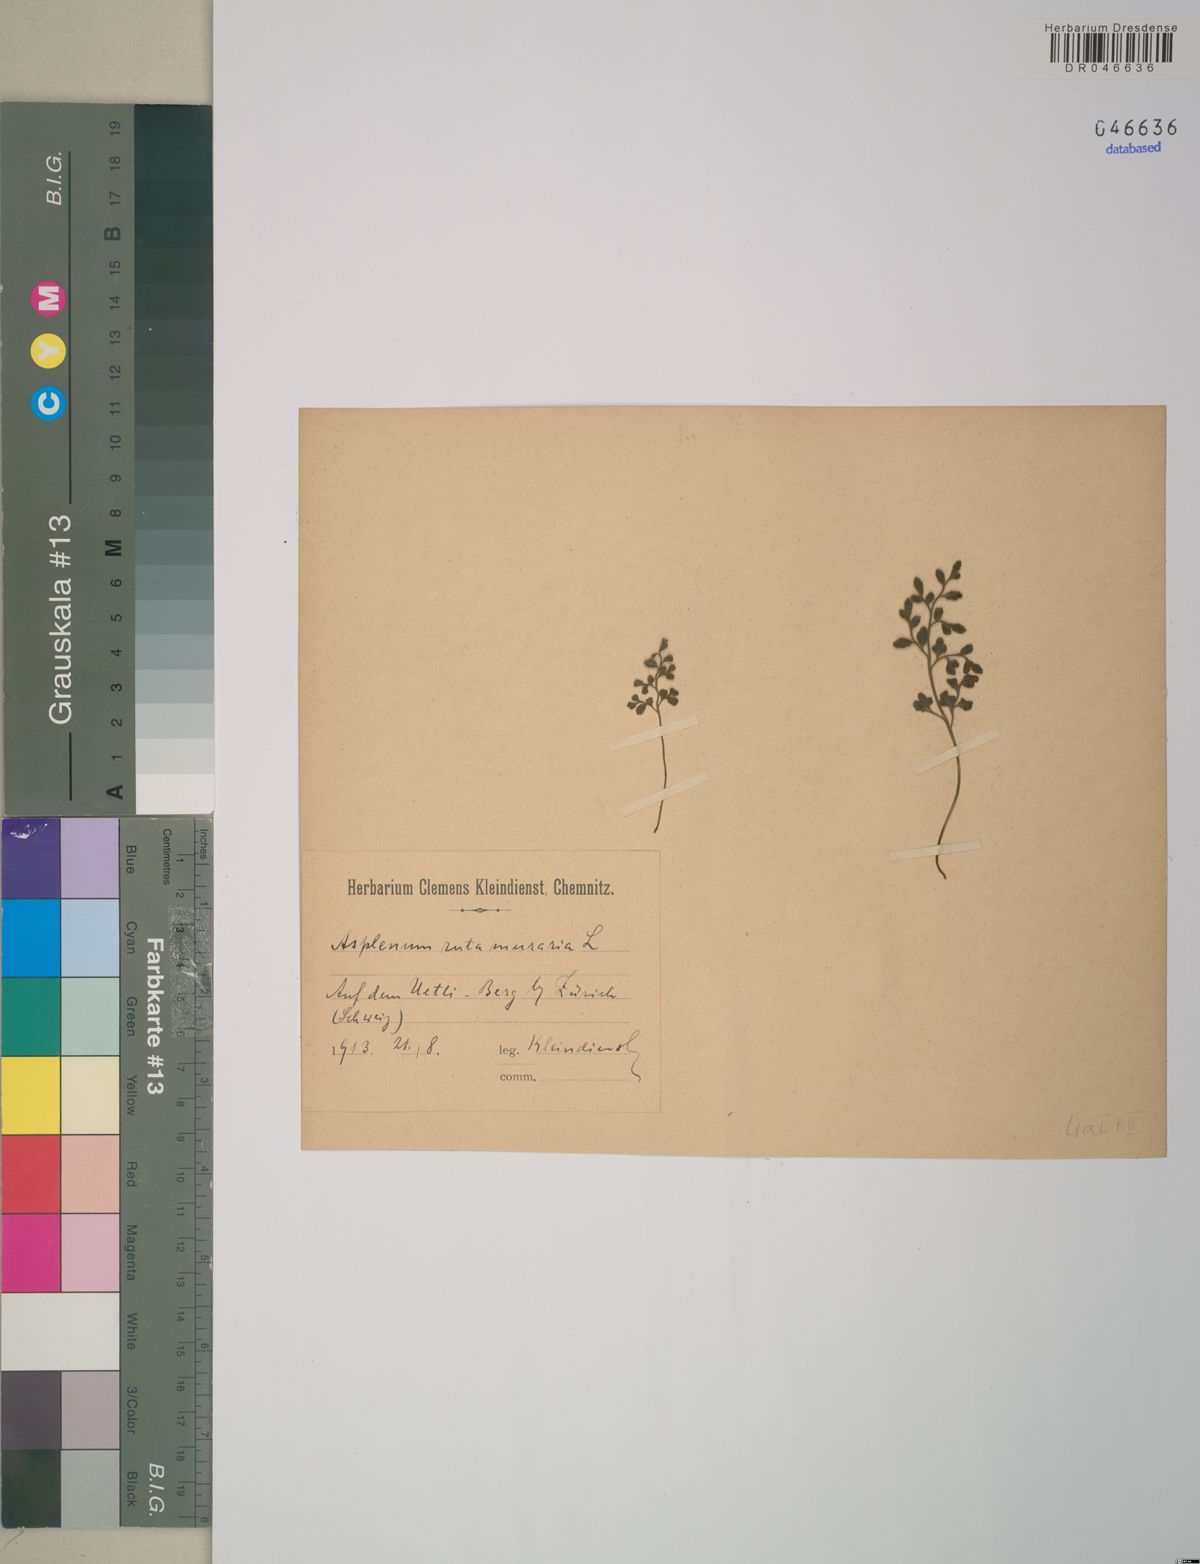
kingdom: Plantae
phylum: Tracheophyta
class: Polypodiopsida
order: Polypodiales
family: Aspleniaceae
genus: Asplenium
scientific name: Asplenium ruta-muraria
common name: Wall-rue
